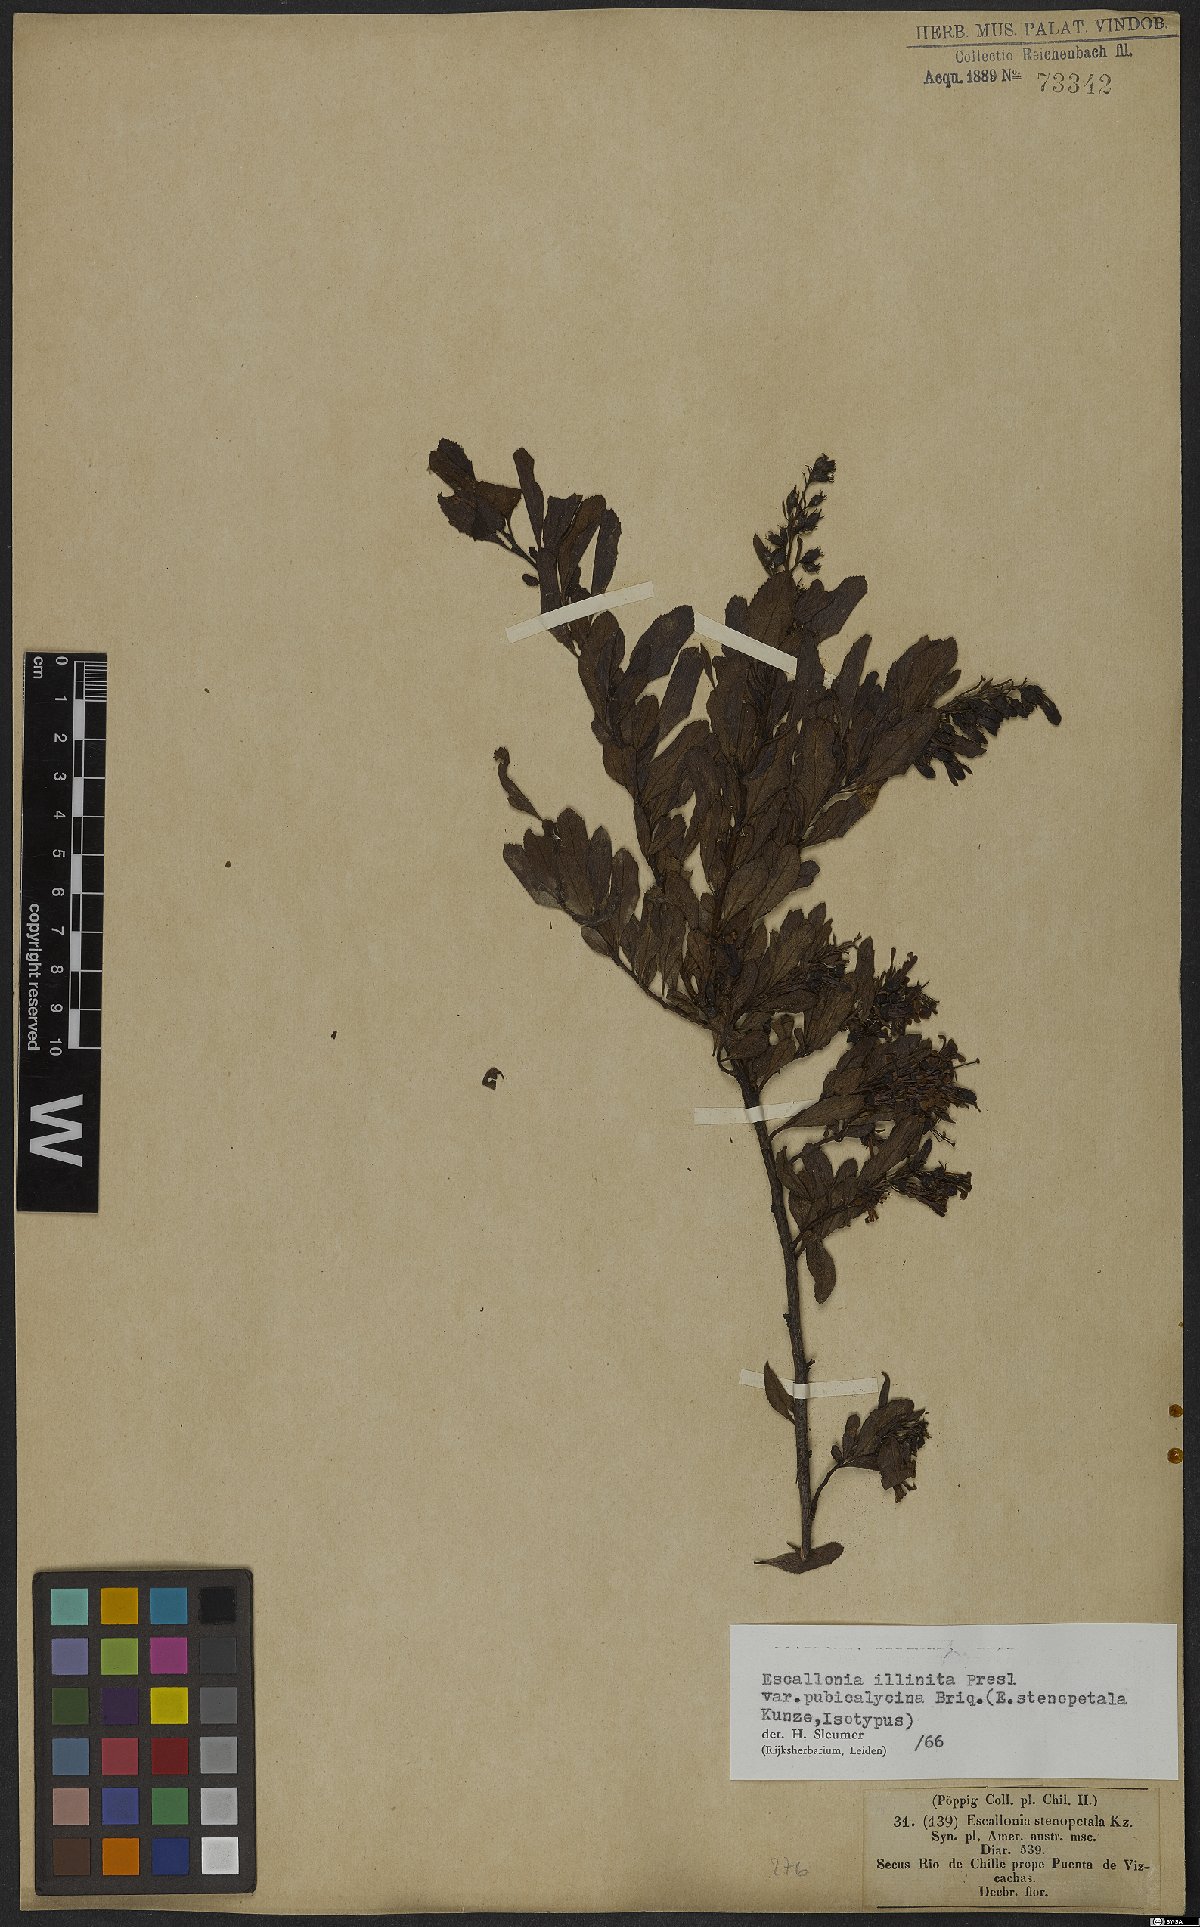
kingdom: Plantae
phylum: Tracheophyta
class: Magnoliopsida
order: Escalloniales
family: Escalloniaceae
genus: Escallonia
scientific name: Escallonia illinita
